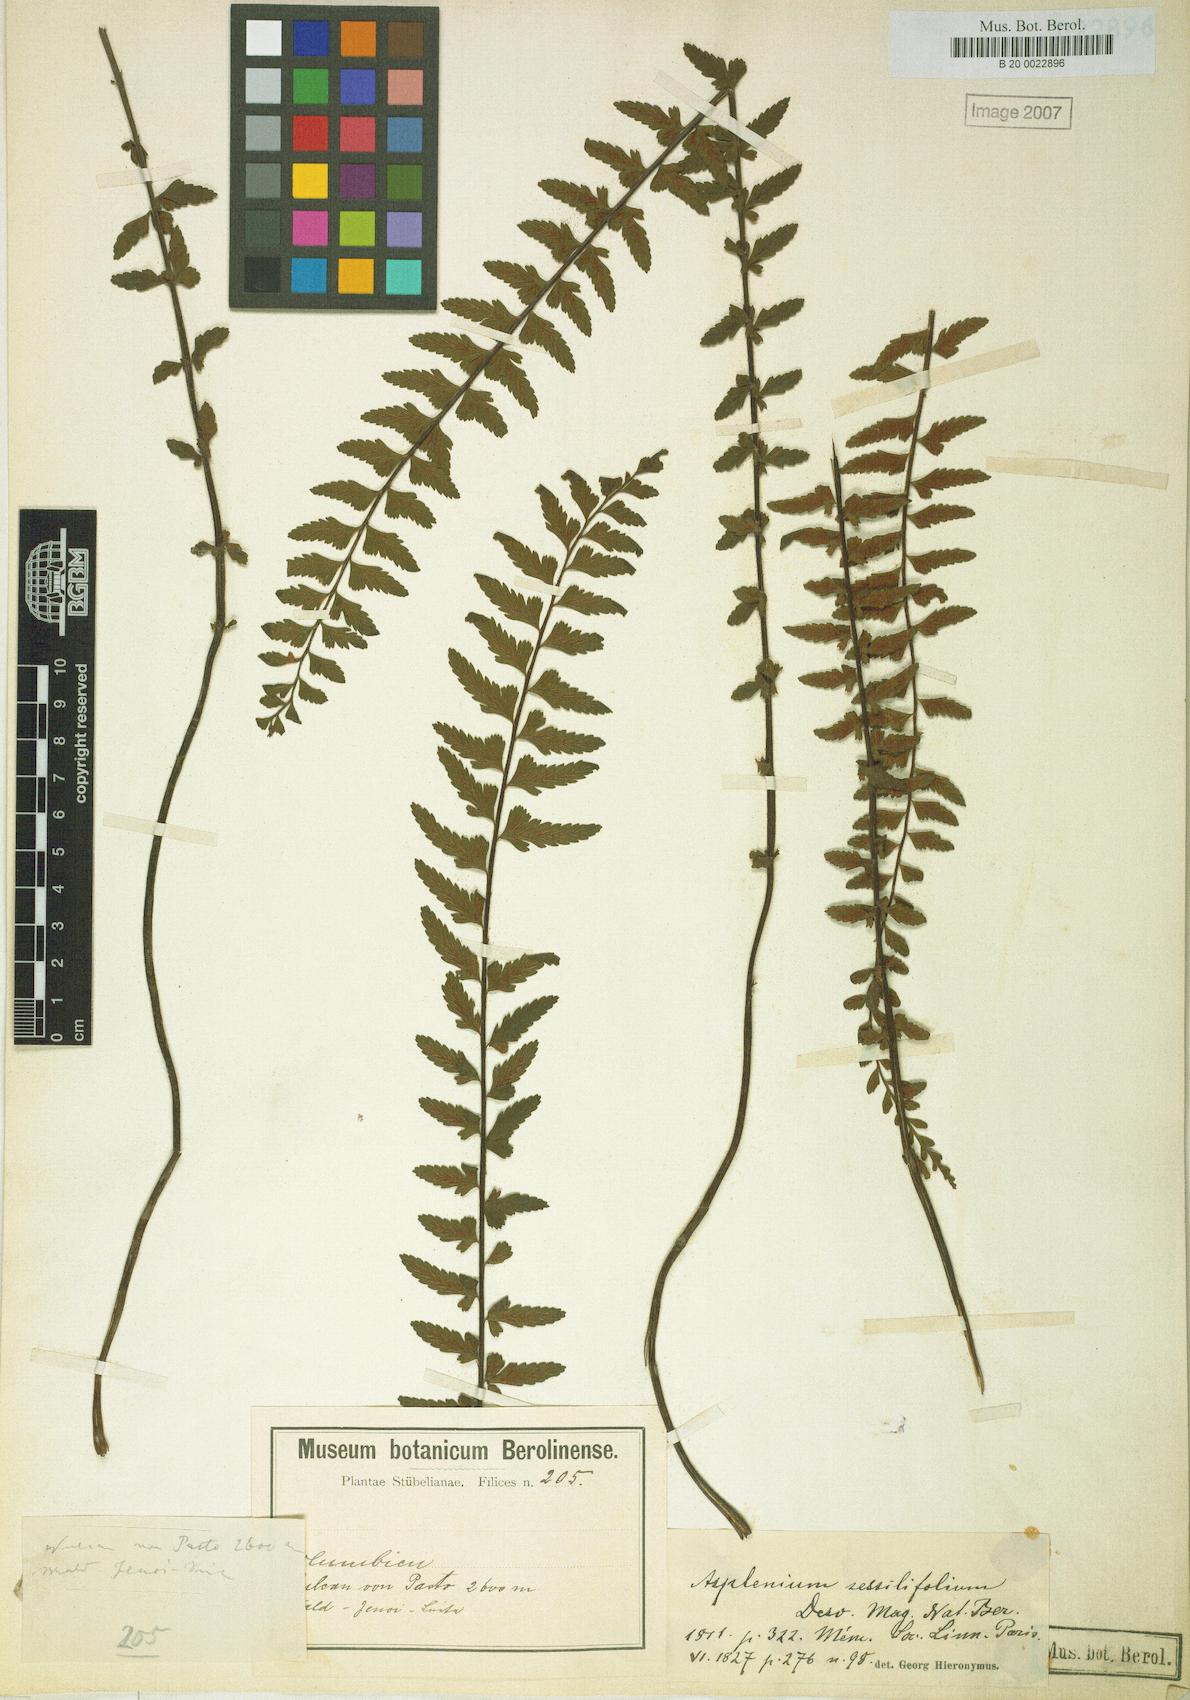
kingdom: Plantae
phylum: Tracheophyta
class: Polypodiopsida
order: Polypodiales
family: Aspleniaceae
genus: Asplenium
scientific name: Asplenium sessilifolium
